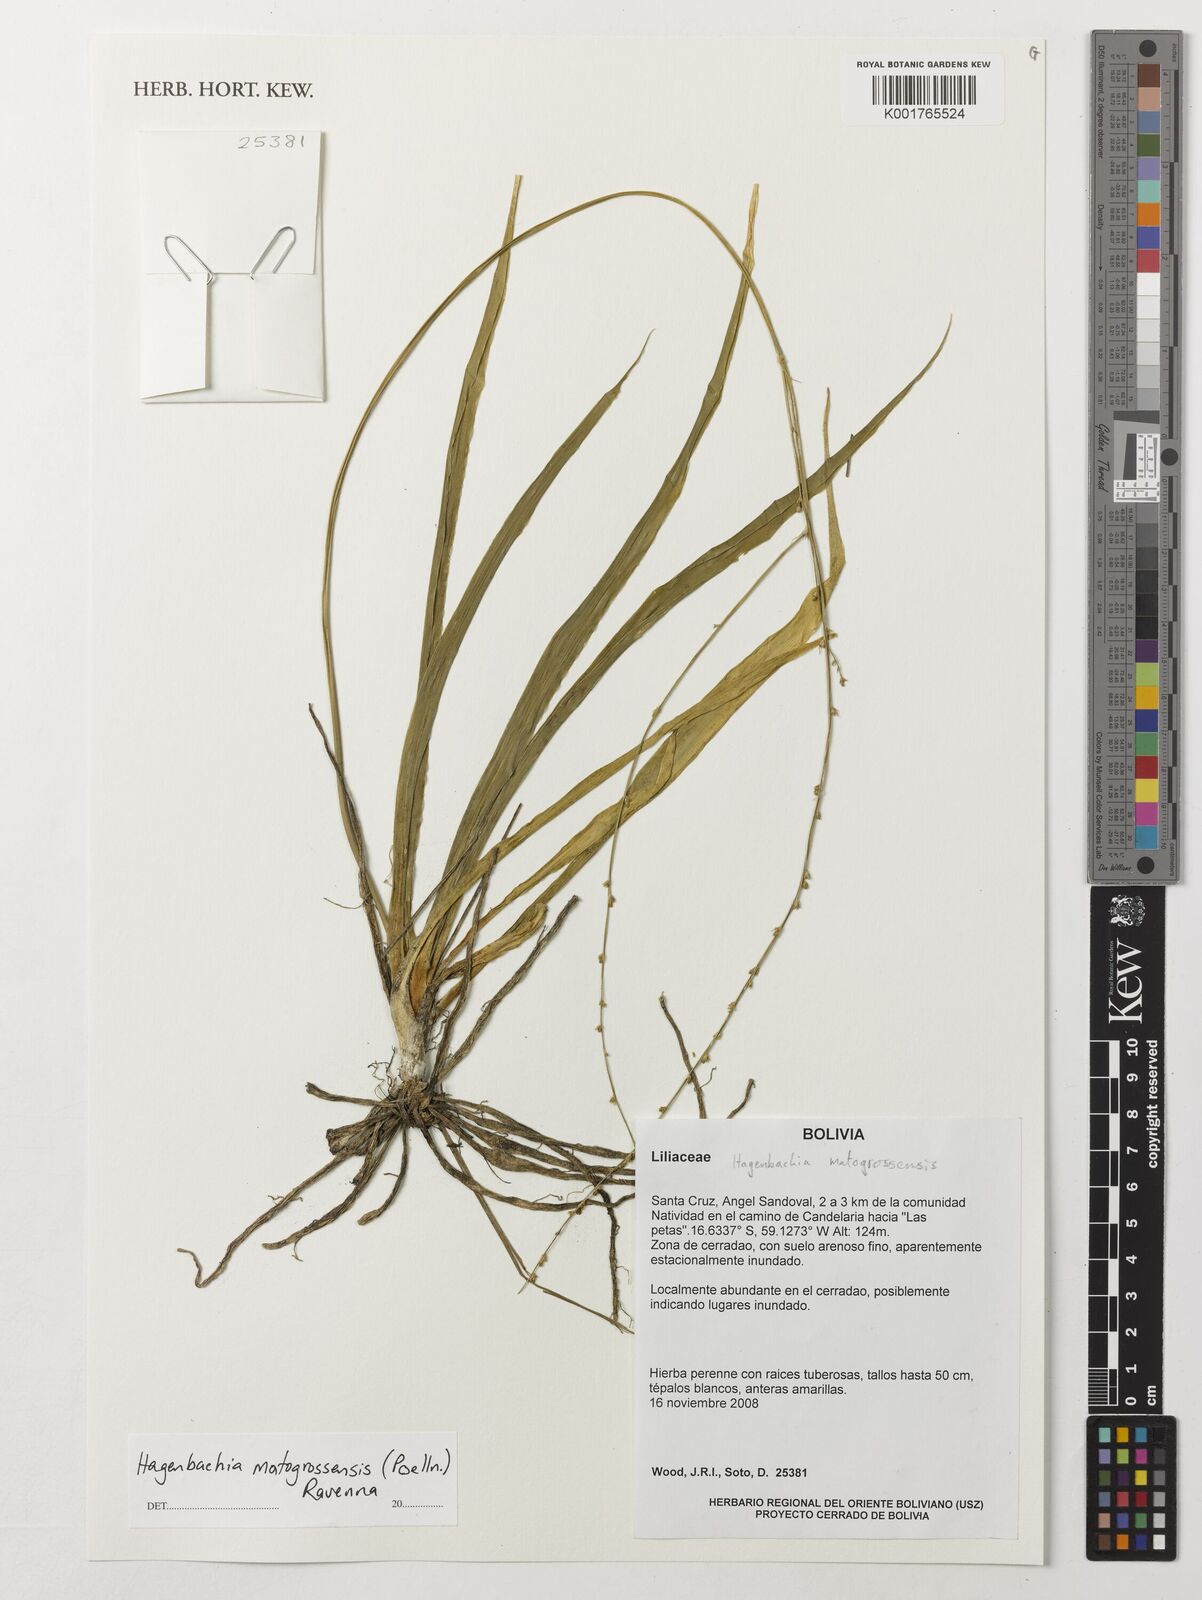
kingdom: Plantae
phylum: Tracheophyta
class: Liliopsida
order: Asparagales
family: Asparagaceae
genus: Hagenbachia
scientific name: Hagenbachia matogrossensis
